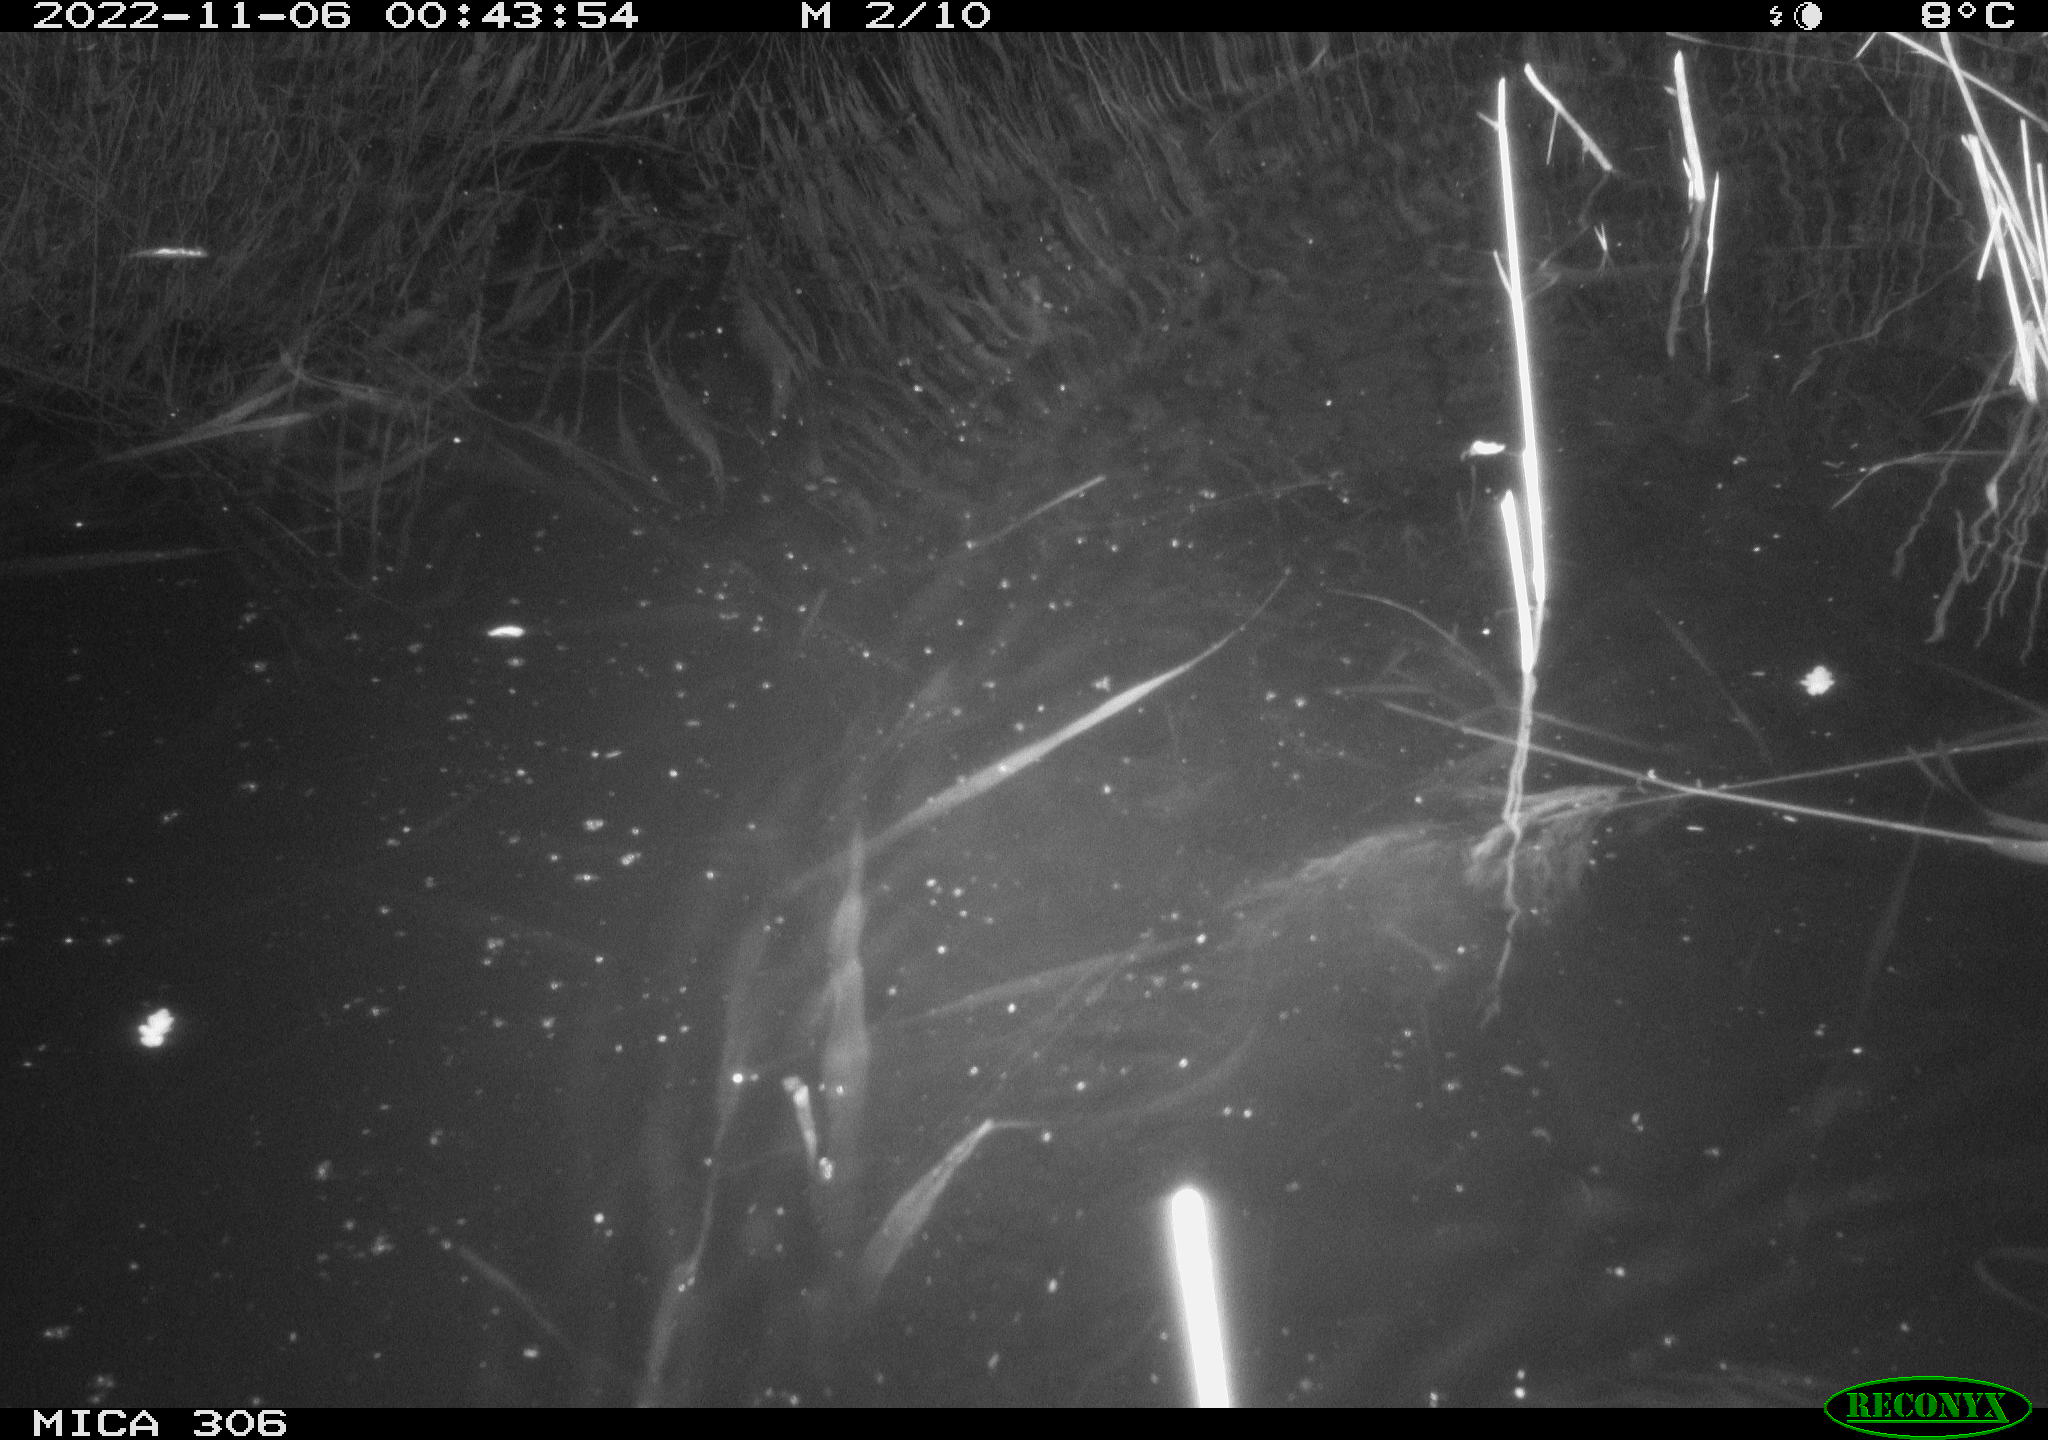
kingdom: Animalia
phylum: Chordata
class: Mammalia
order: Rodentia
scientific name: Rodentia
